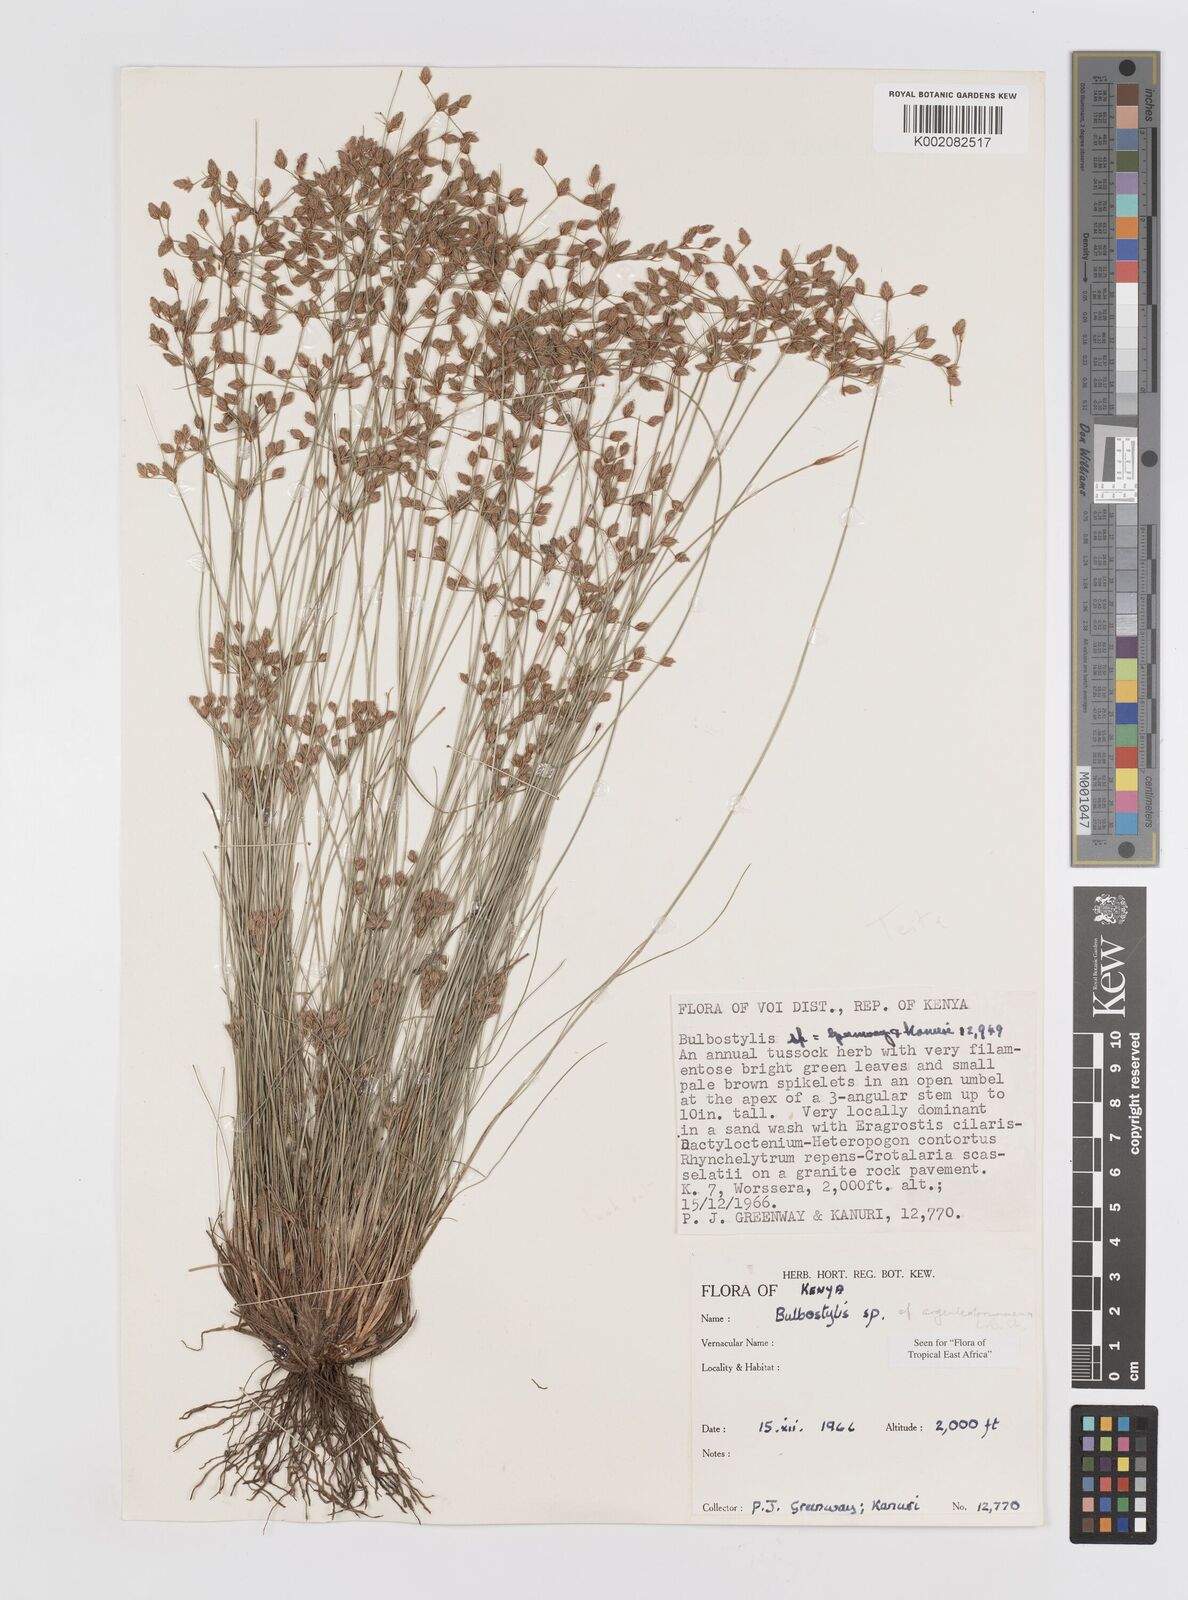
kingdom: Plantae
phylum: Tracheophyta
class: Liliopsida
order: Poales
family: Cyperaceae
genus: Bulbostylis
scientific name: Bulbostylis argenteobrunea
